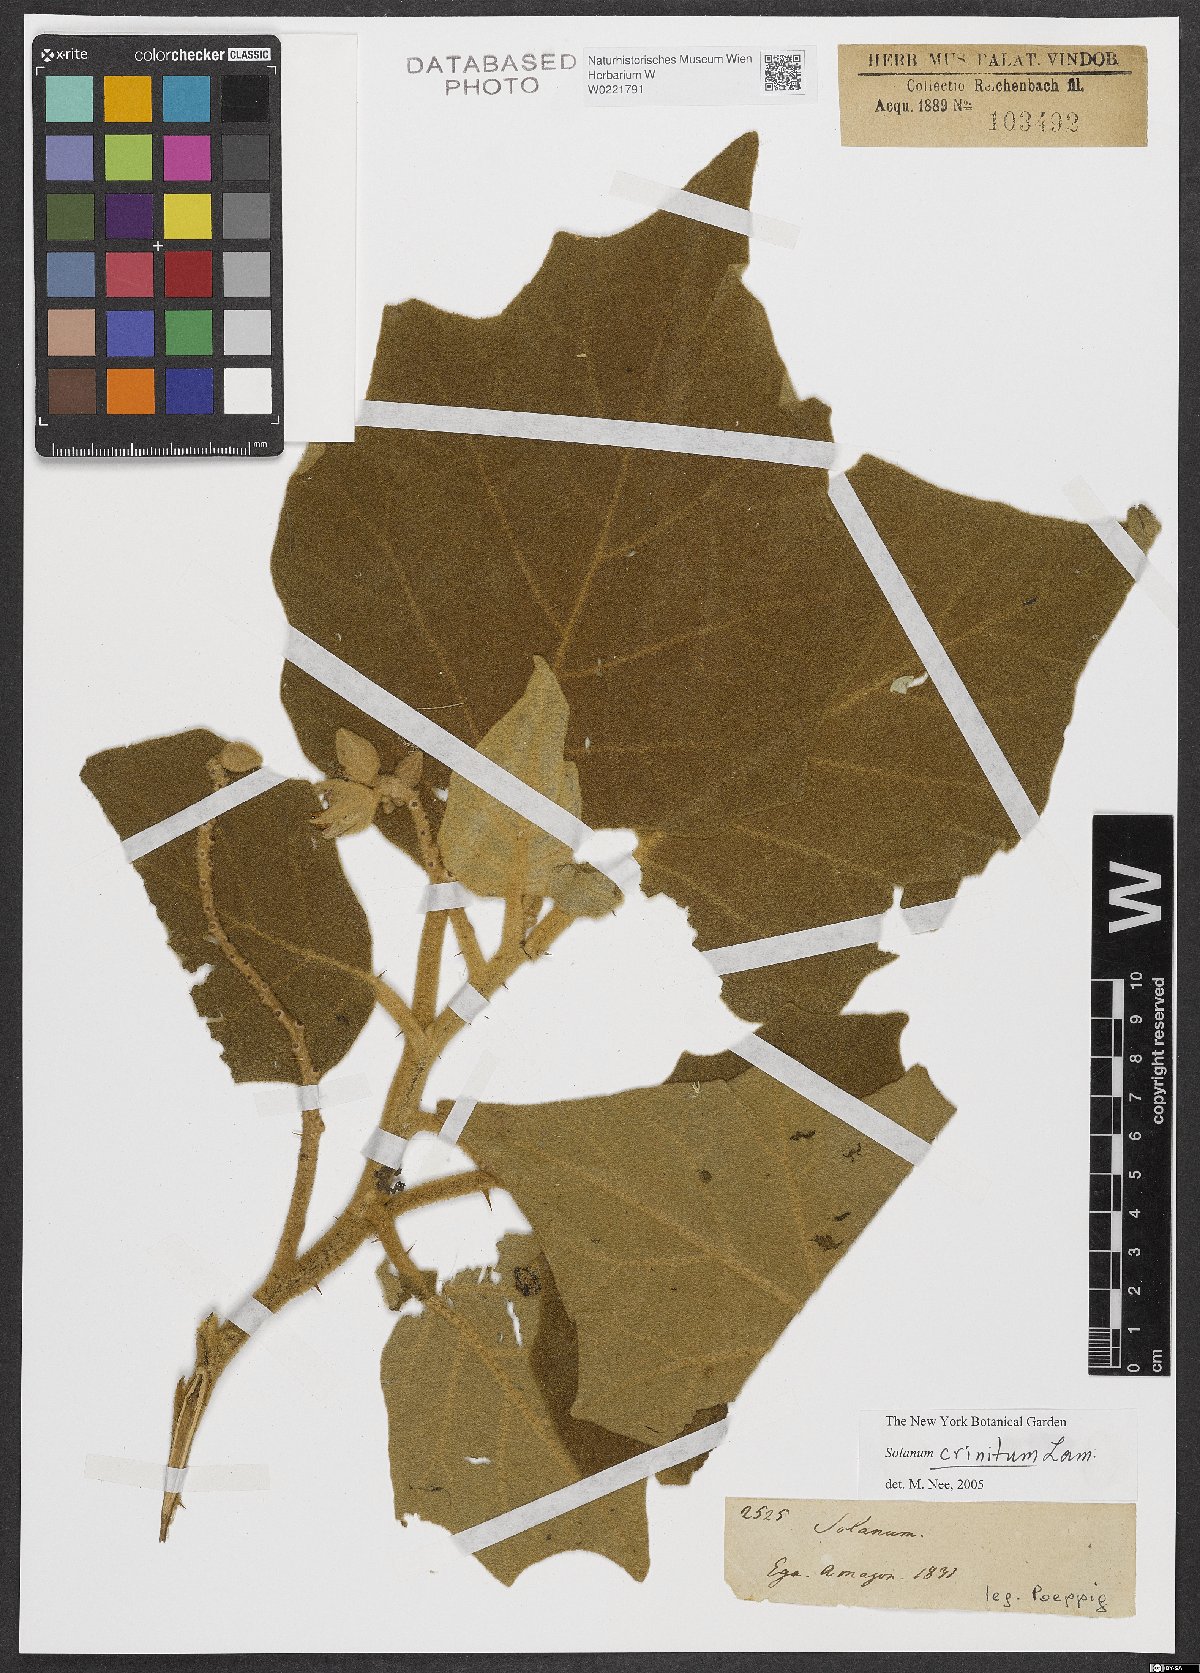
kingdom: Plantae
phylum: Tracheophyta
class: Magnoliopsida
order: Solanales
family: Solanaceae
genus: Solanum
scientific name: Solanum crinitum
